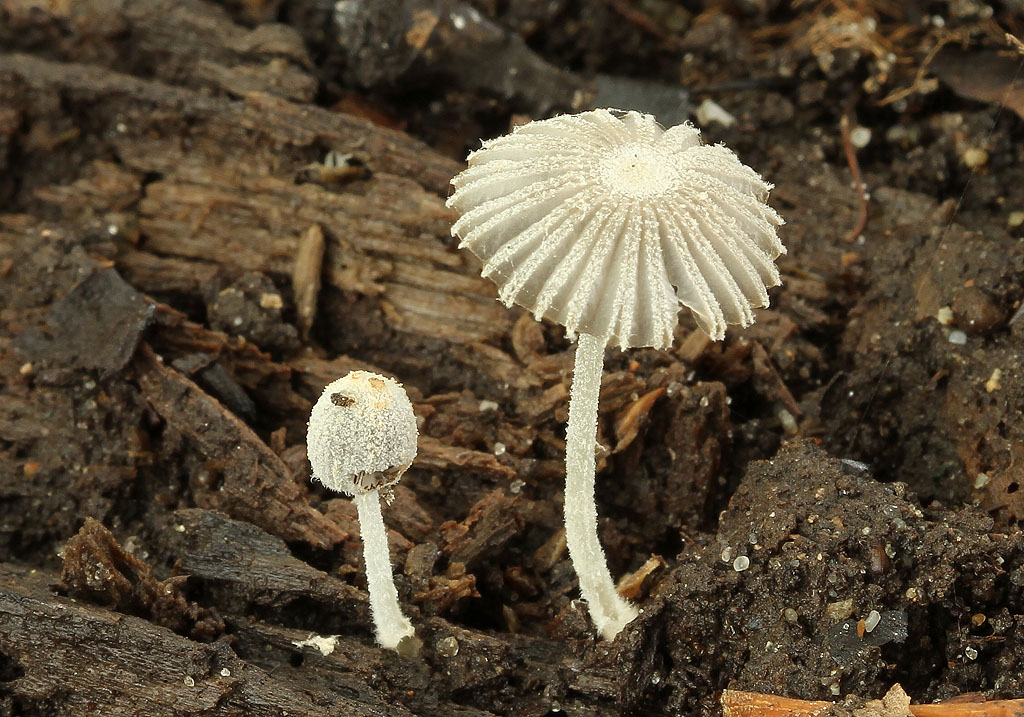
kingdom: Fungi
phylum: Basidiomycota
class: Agaricomycetes
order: Agaricales
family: Psathyrellaceae
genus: Coprinopsis
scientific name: Coprinopsis candidata
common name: hvidklædt blækhat
